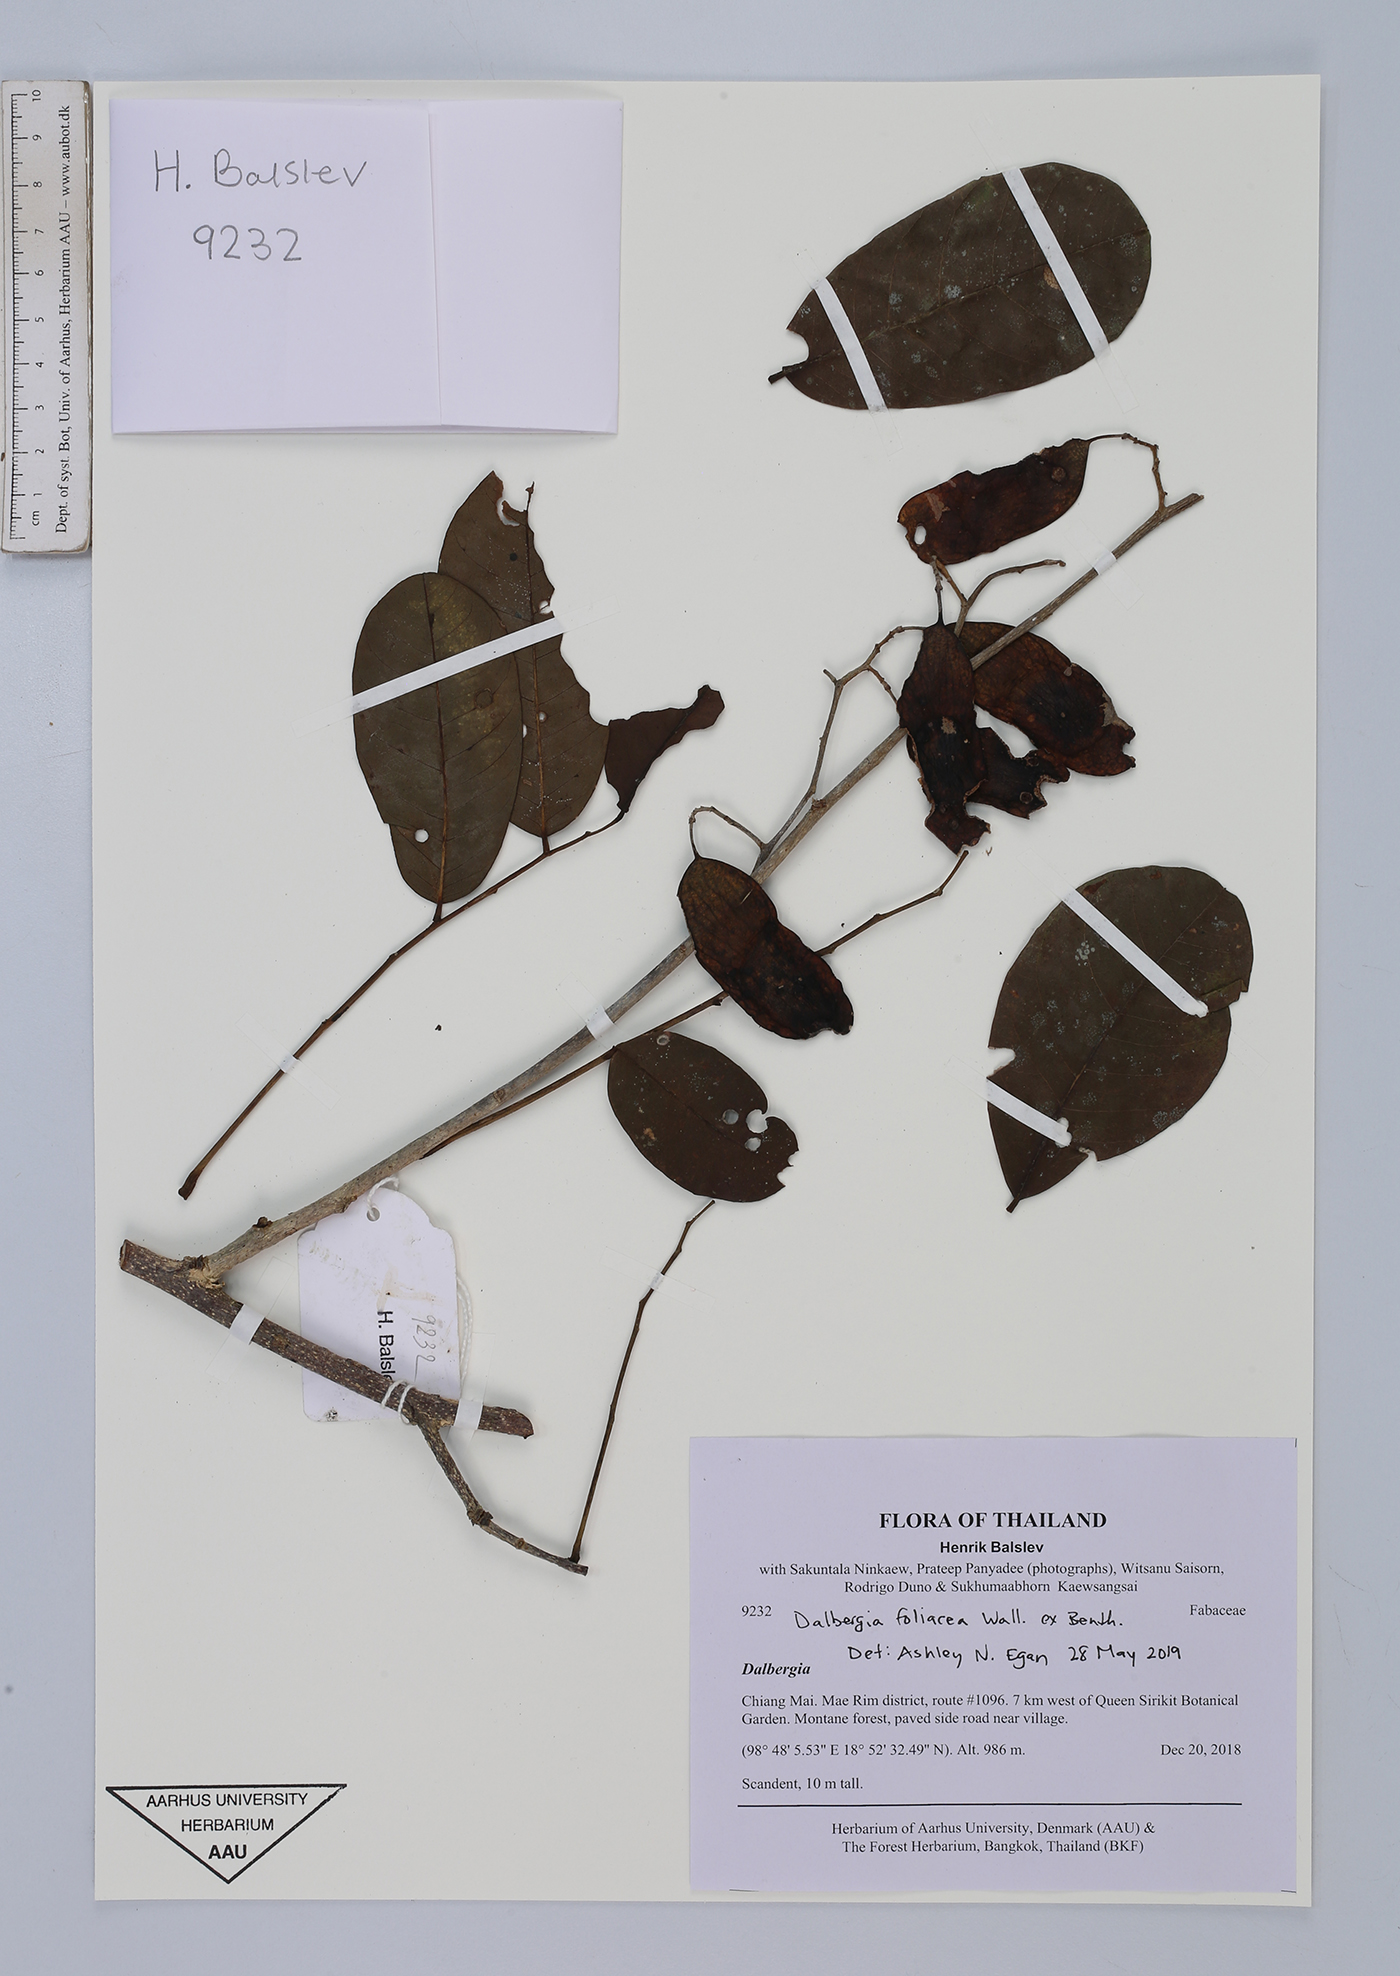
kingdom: Plantae
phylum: Tracheophyta
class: Magnoliopsida
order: Fabales
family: Fabaceae
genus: Dalbergia
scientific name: Dalbergia foliosa
